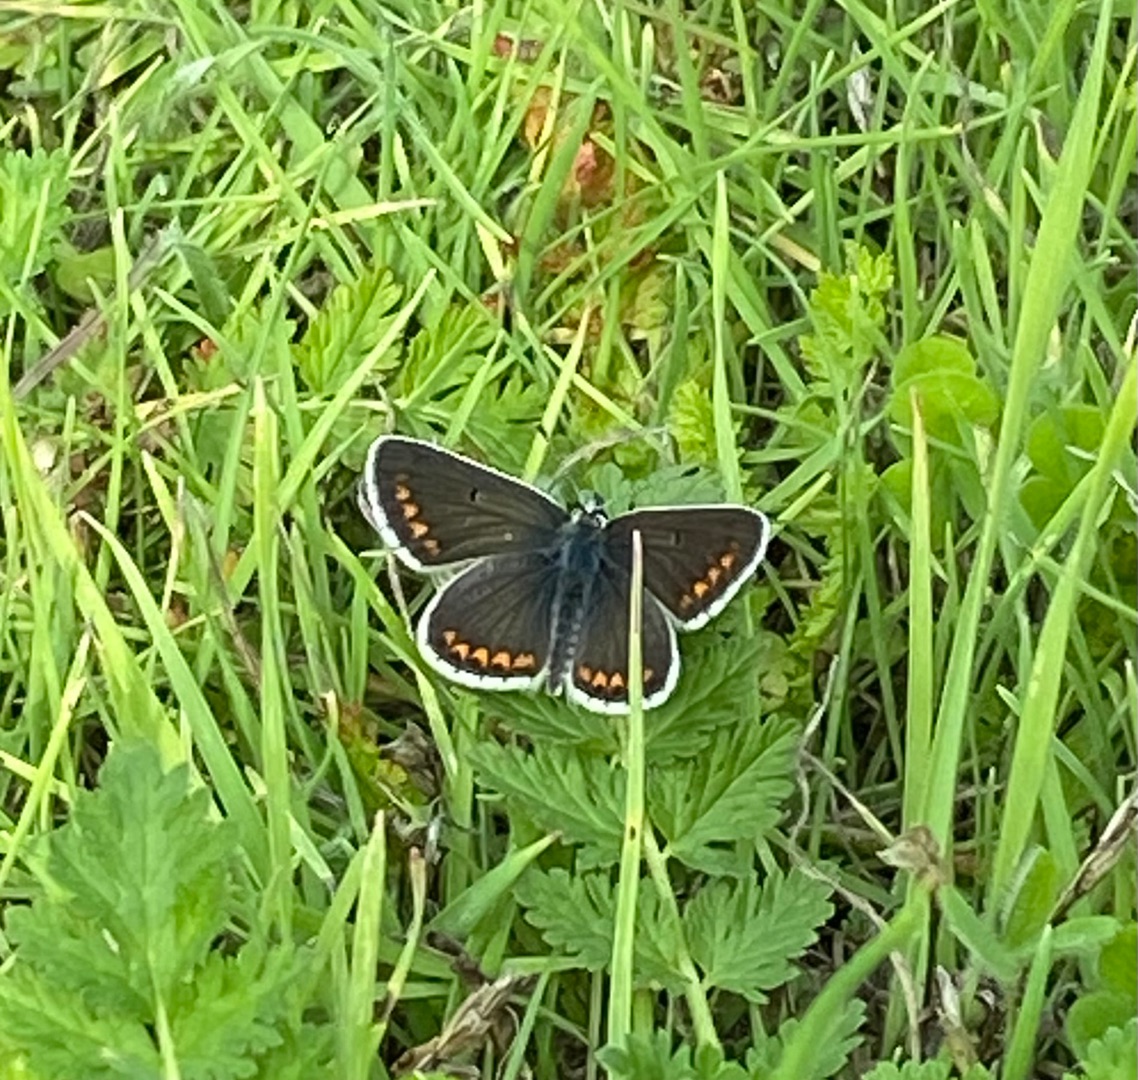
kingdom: Animalia
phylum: Arthropoda
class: Insecta
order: Lepidoptera
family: Lycaenidae
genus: Aricia
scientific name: Aricia agestis
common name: Rødplettet blåfugl
